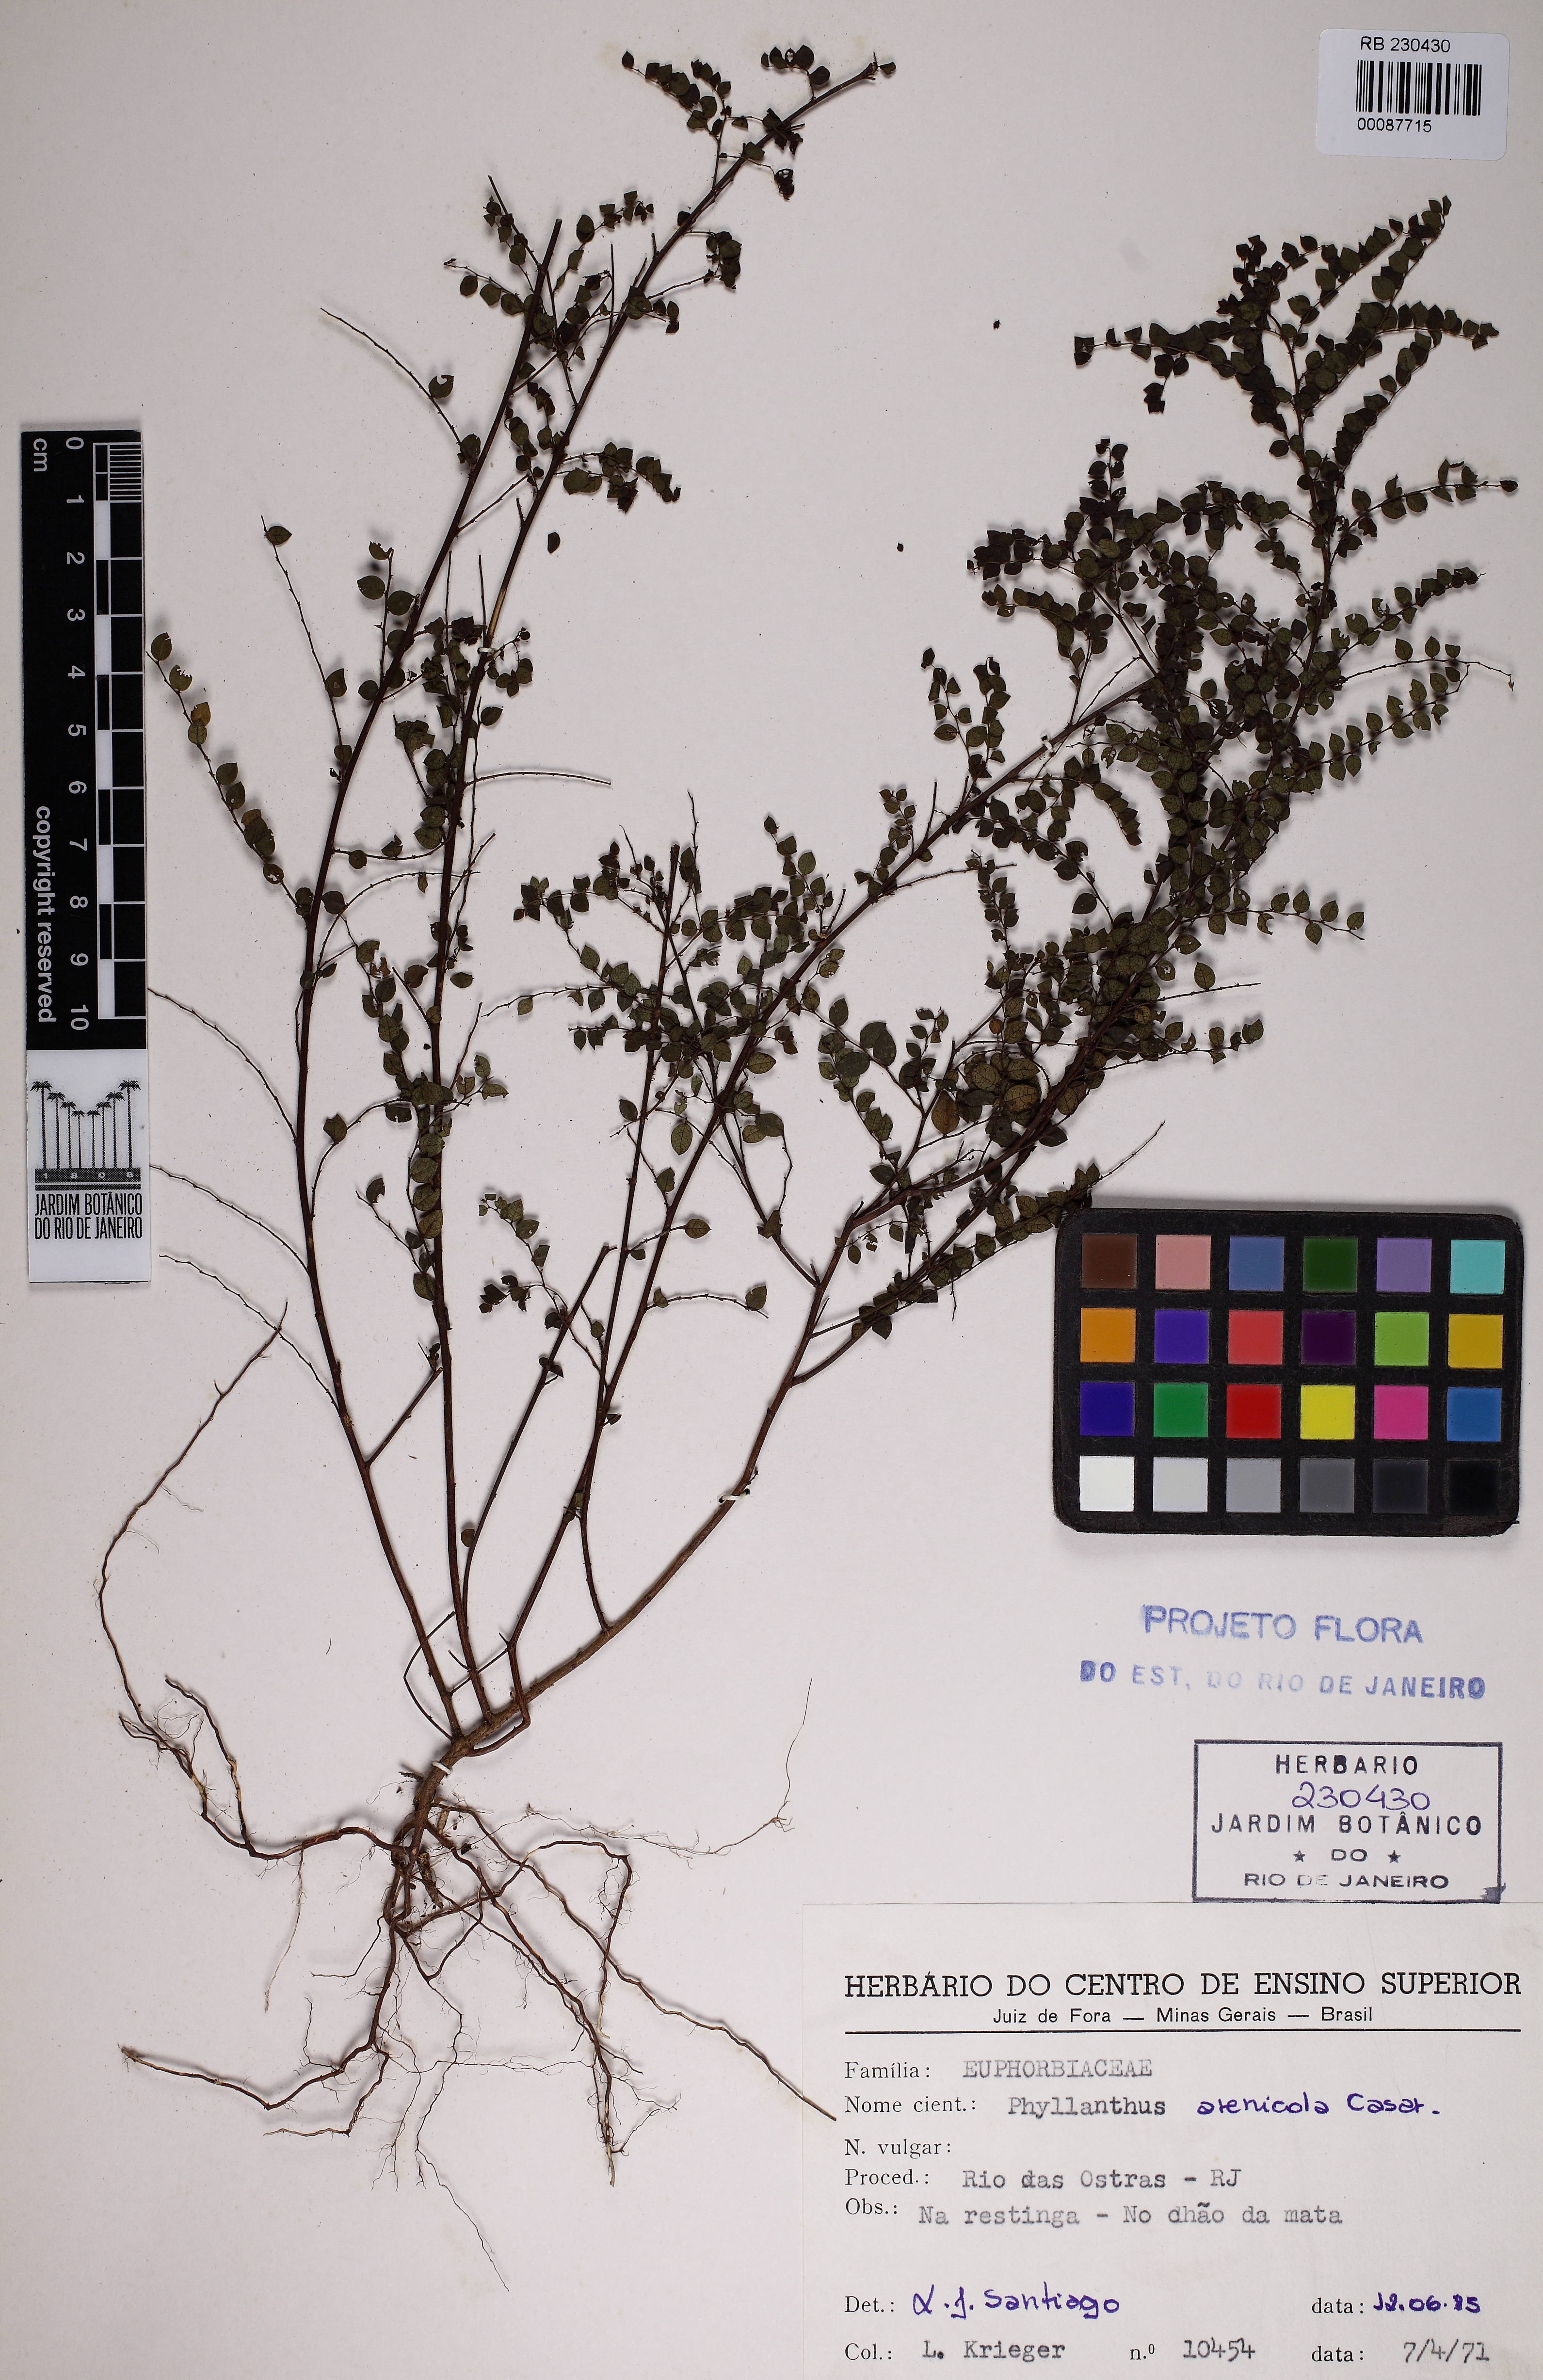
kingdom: Plantae
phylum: Tracheophyta
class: Magnoliopsida
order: Malpighiales
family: Phyllanthaceae
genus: Phyllanthus
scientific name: Phyllanthus arenicola
